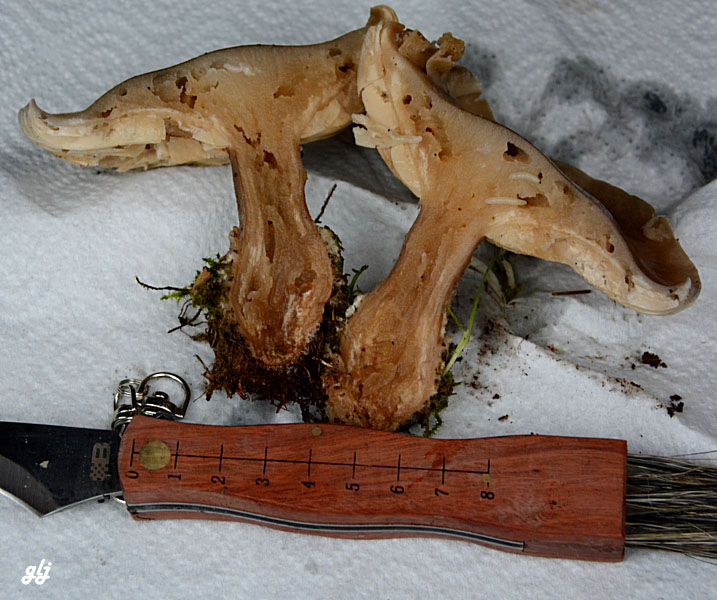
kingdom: Fungi
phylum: Basidiomycota
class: Agaricomycetes
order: Agaricales
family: Tricholomataceae
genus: Lepista
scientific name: Lepista panaeolus
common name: marmoreret hekseringshat
